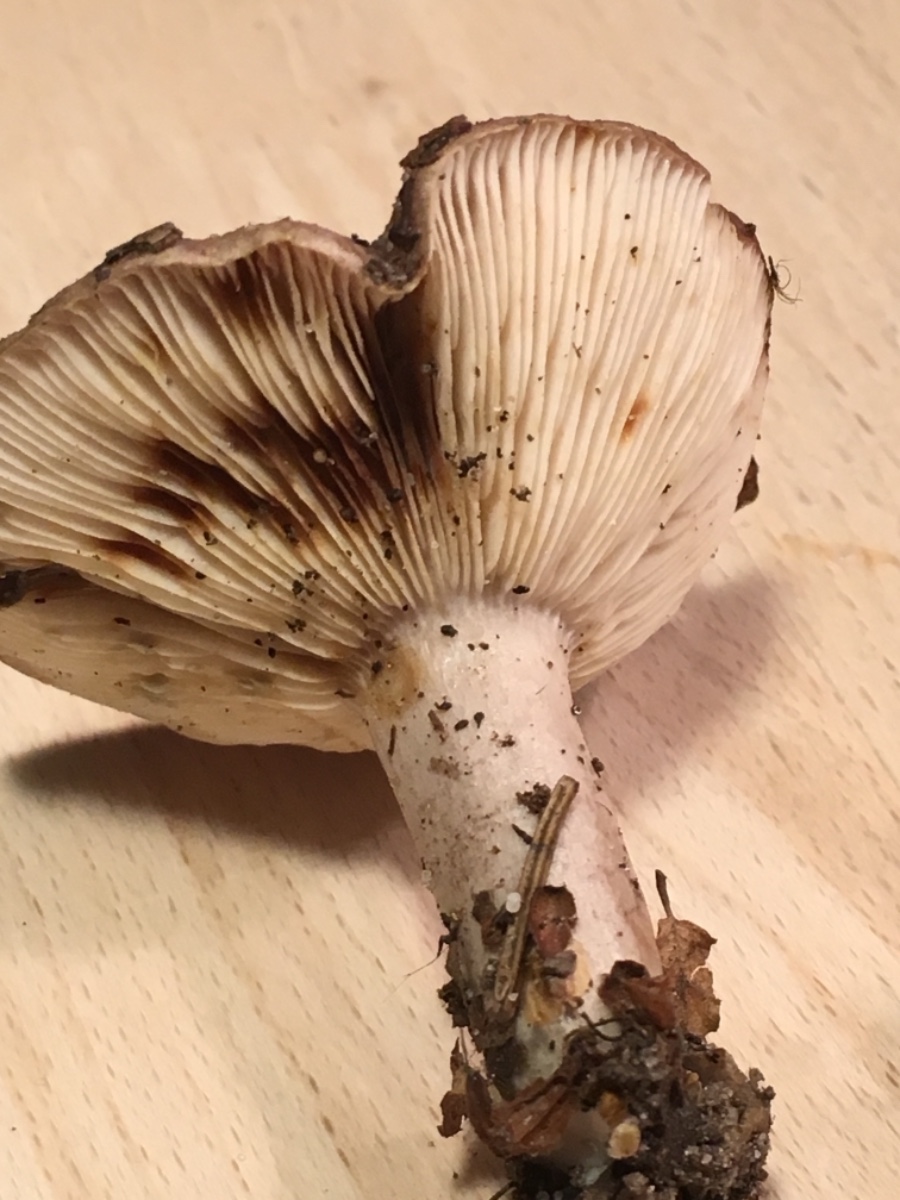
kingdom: Fungi
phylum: Basidiomycota
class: Agaricomycetes
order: Russulales
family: Russulaceae
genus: Lactarius
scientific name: Lactarius blennius
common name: dråbeplettet mælkehat
